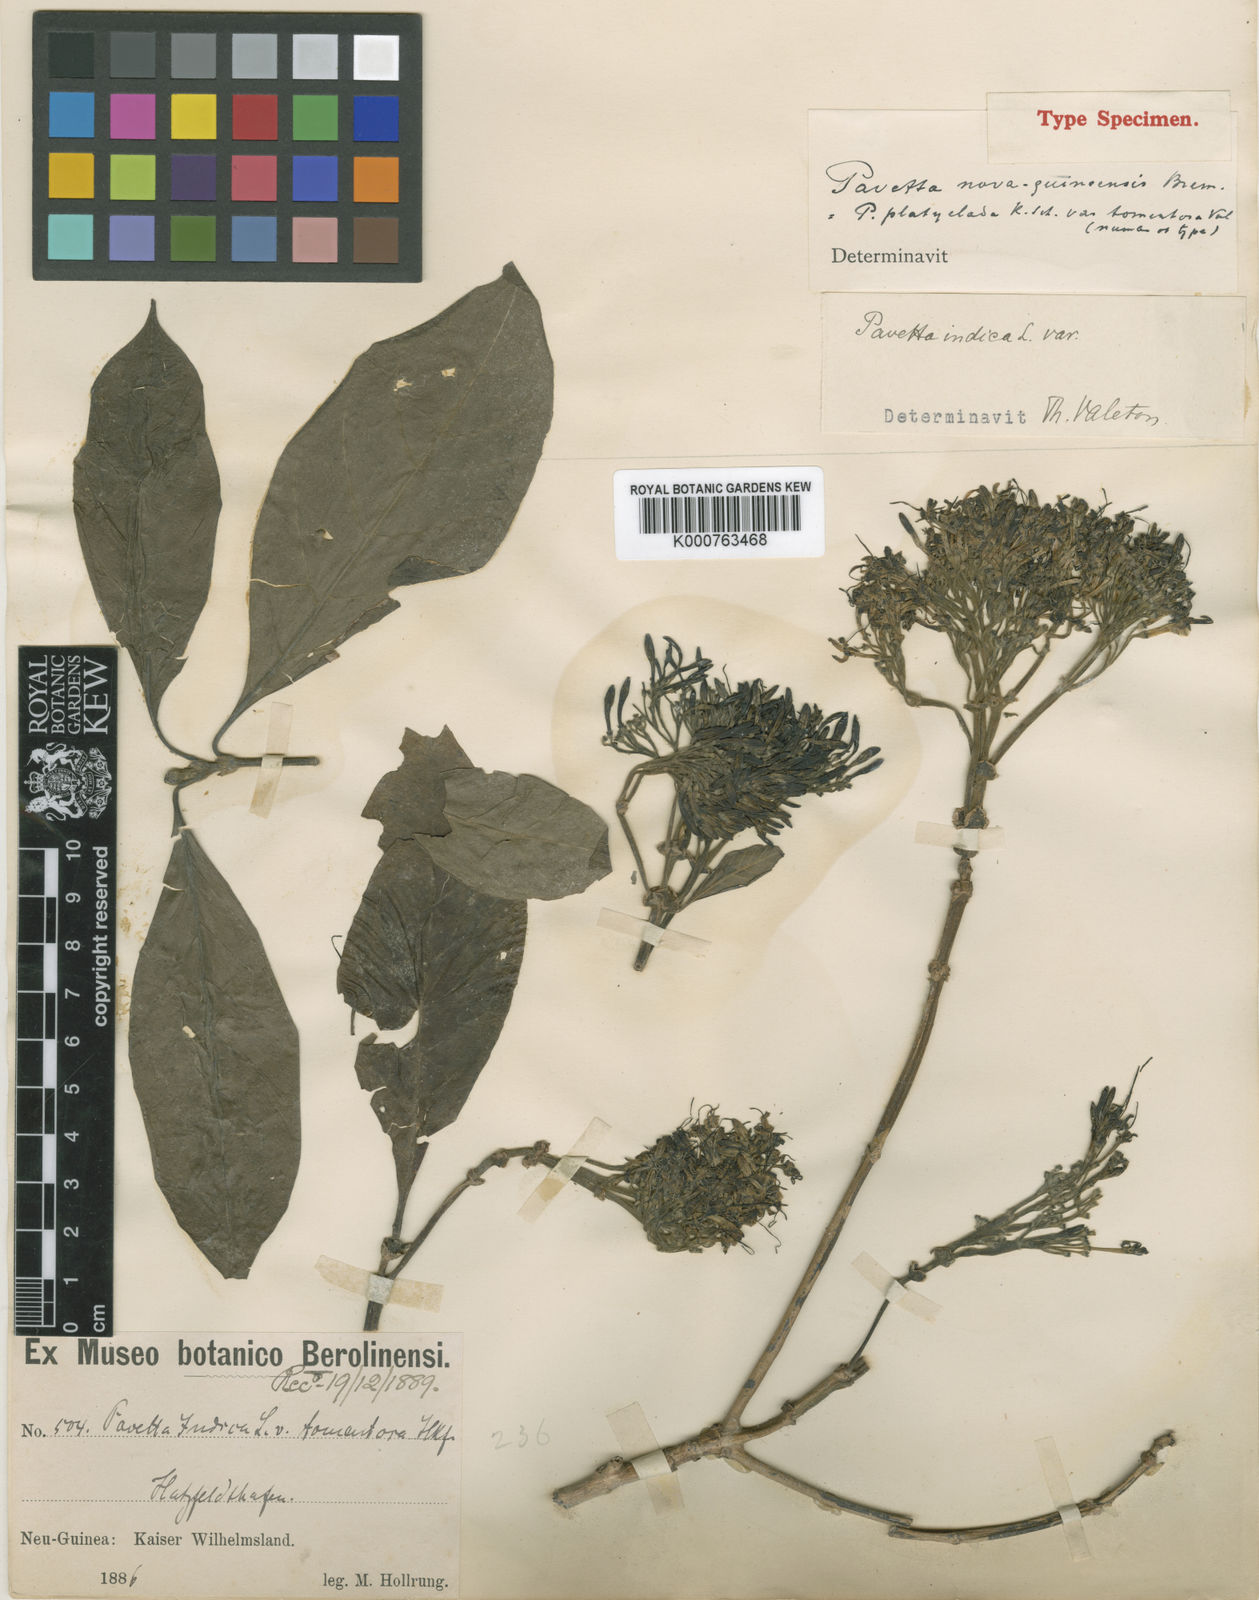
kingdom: Plantae
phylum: Tracheophyta
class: Magnoliopsida
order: Gentianales
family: Rubiaceae
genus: Pavetta
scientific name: Pavetta nova-guineensis
